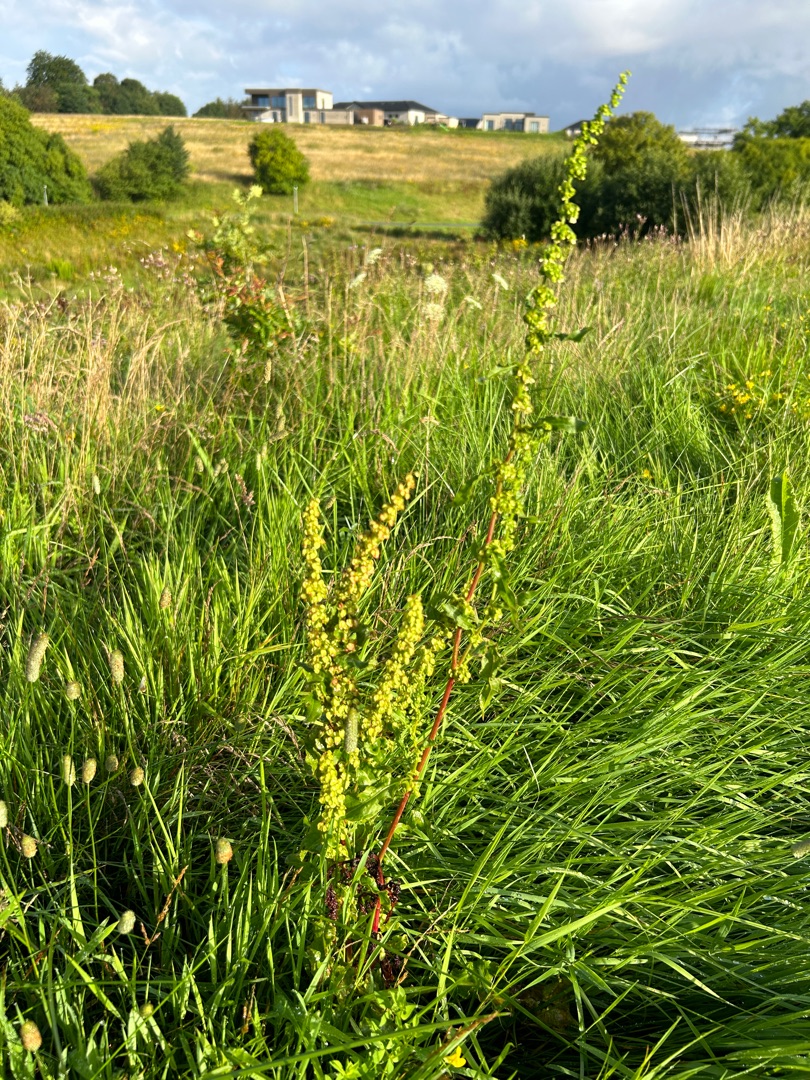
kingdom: Plantae
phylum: Tracheophyta
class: Magnoliopsida
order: Caryophyllales
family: Polygonaceae
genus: Rumex
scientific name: Rumex crispus
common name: Kruset skræppe
